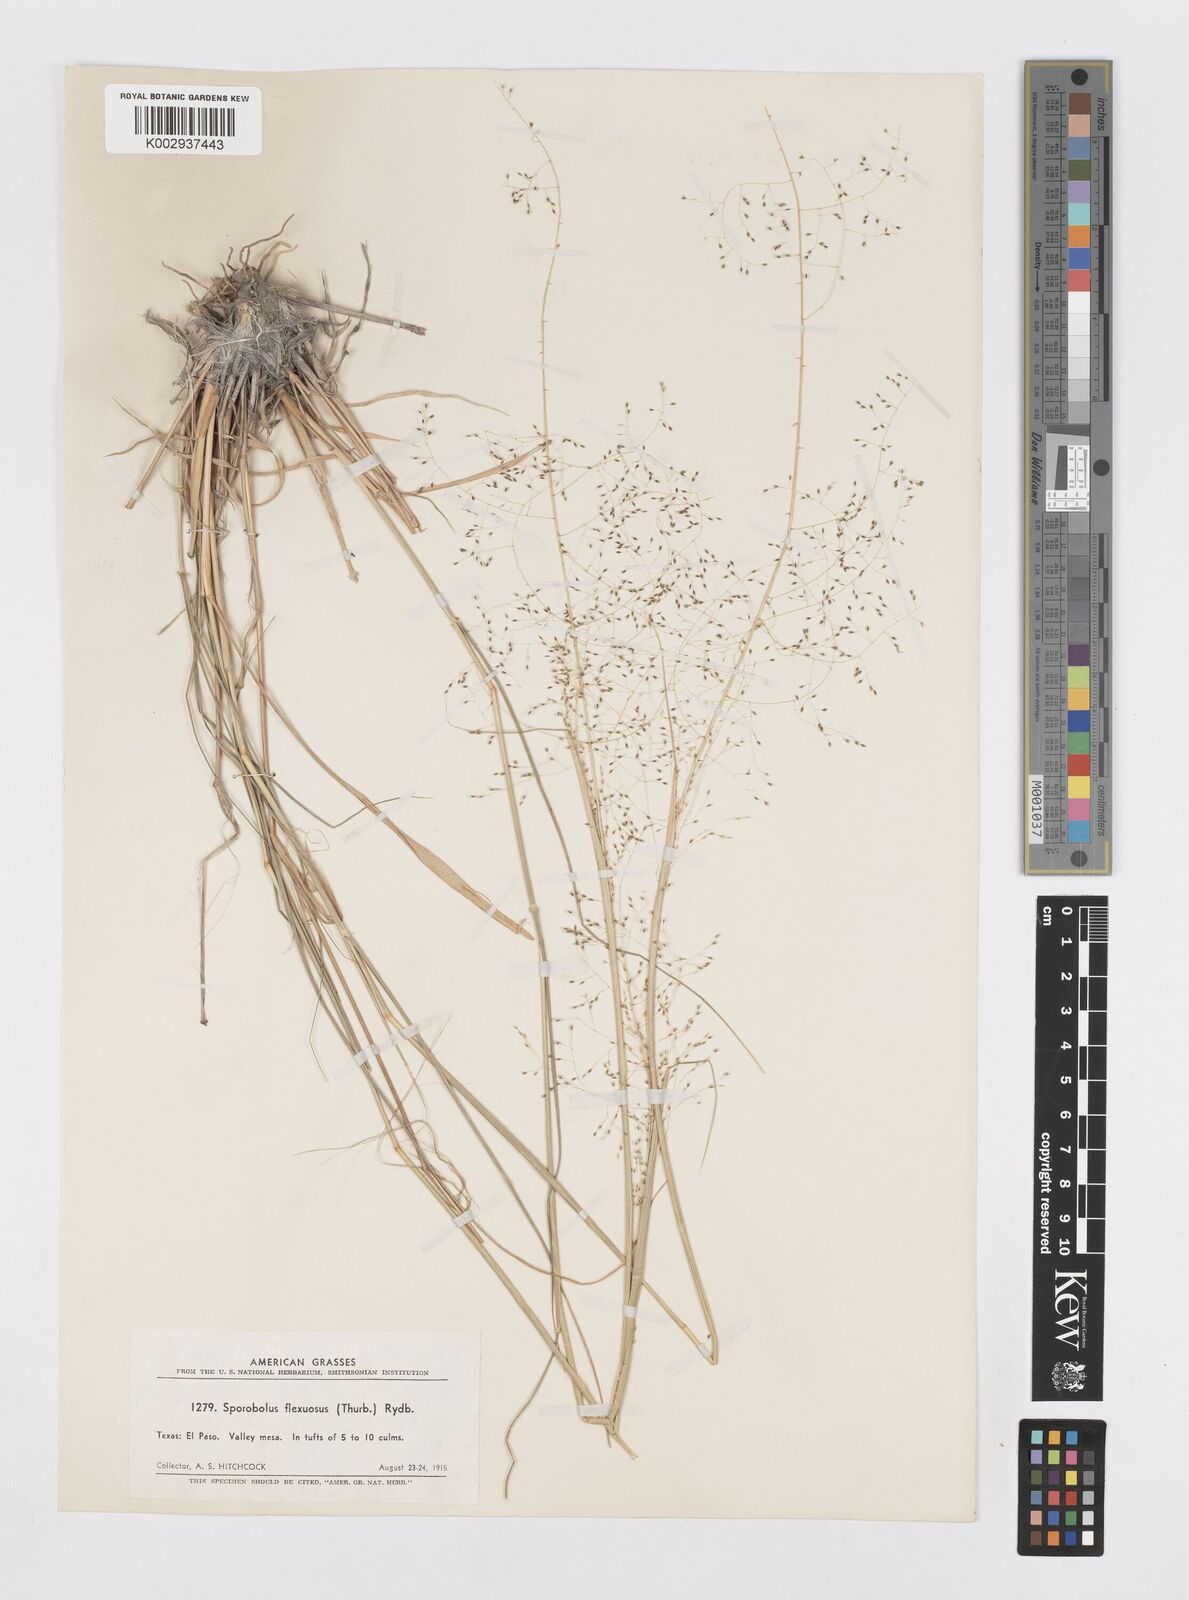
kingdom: Plantae
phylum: Tracheophyta
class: Liliopsida
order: Poales
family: Poaceae
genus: Sporobolus
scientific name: Sporobolus flexuosus
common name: Mesa dropseed
